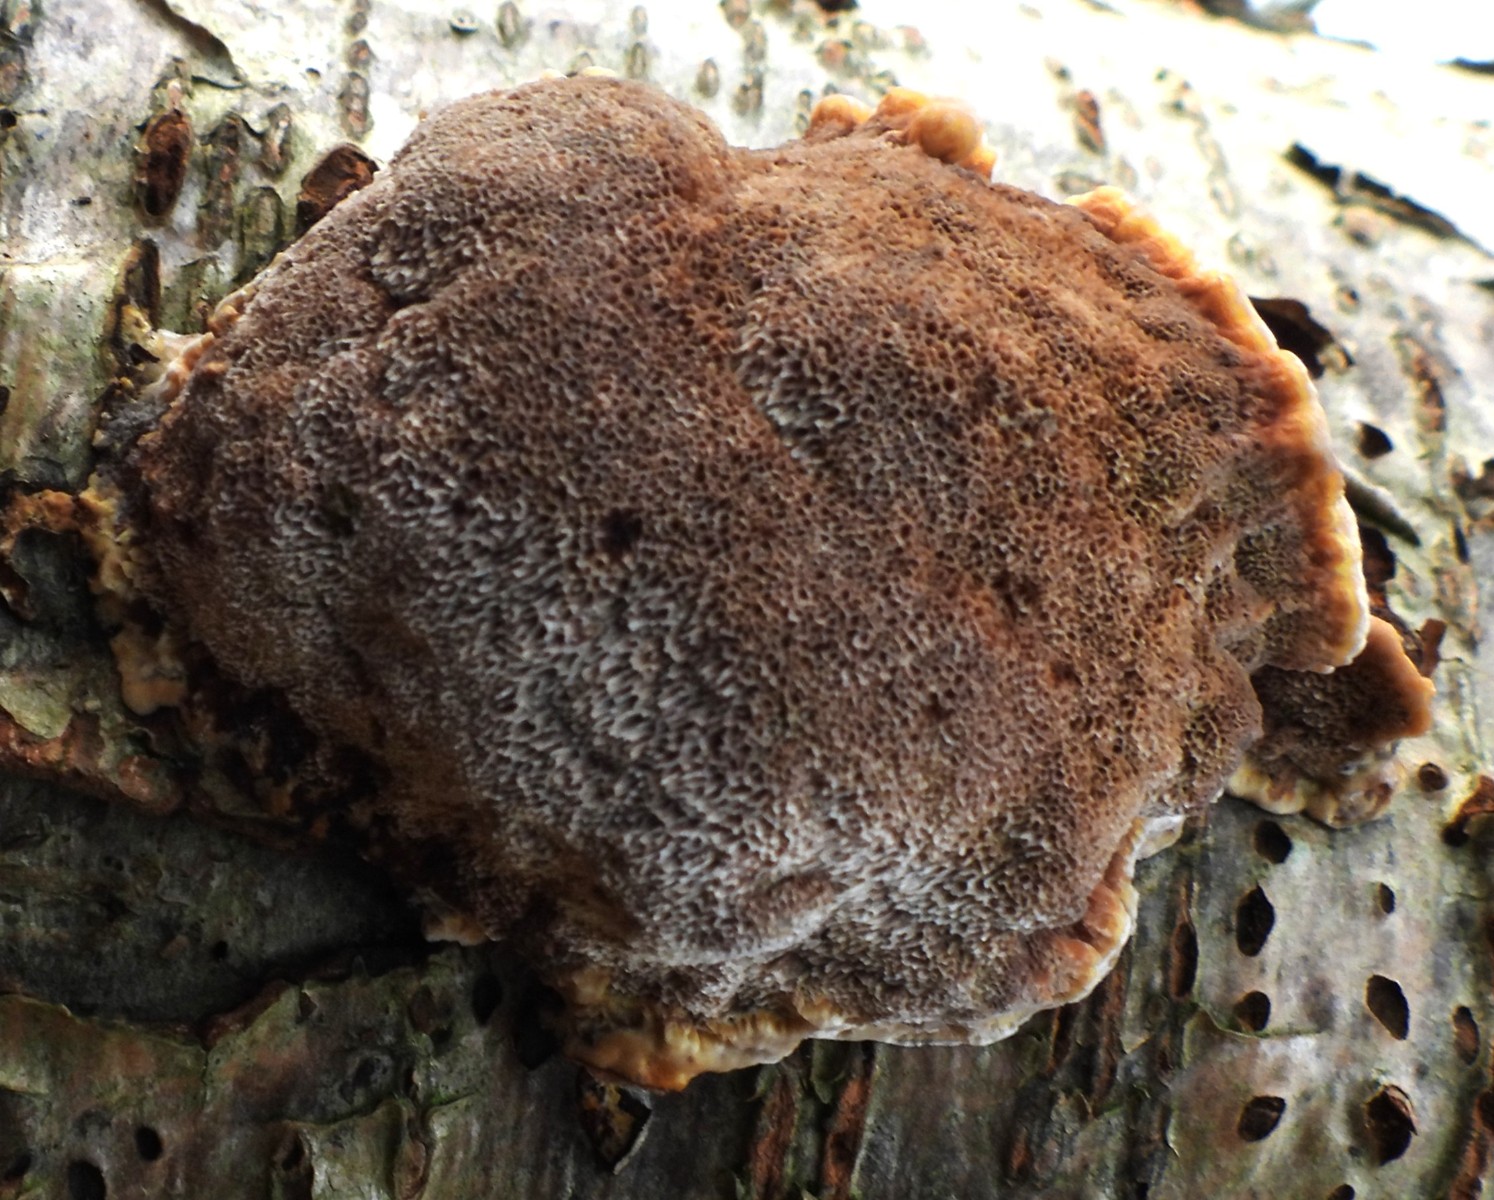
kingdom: Fungi
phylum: Basidiomycota
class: Agaricomycetes
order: Hymenochaetales
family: Hymenochaetaceae
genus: Xanthoporia
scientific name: Xanthoporia radiata
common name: elle-spejlporesvamp
